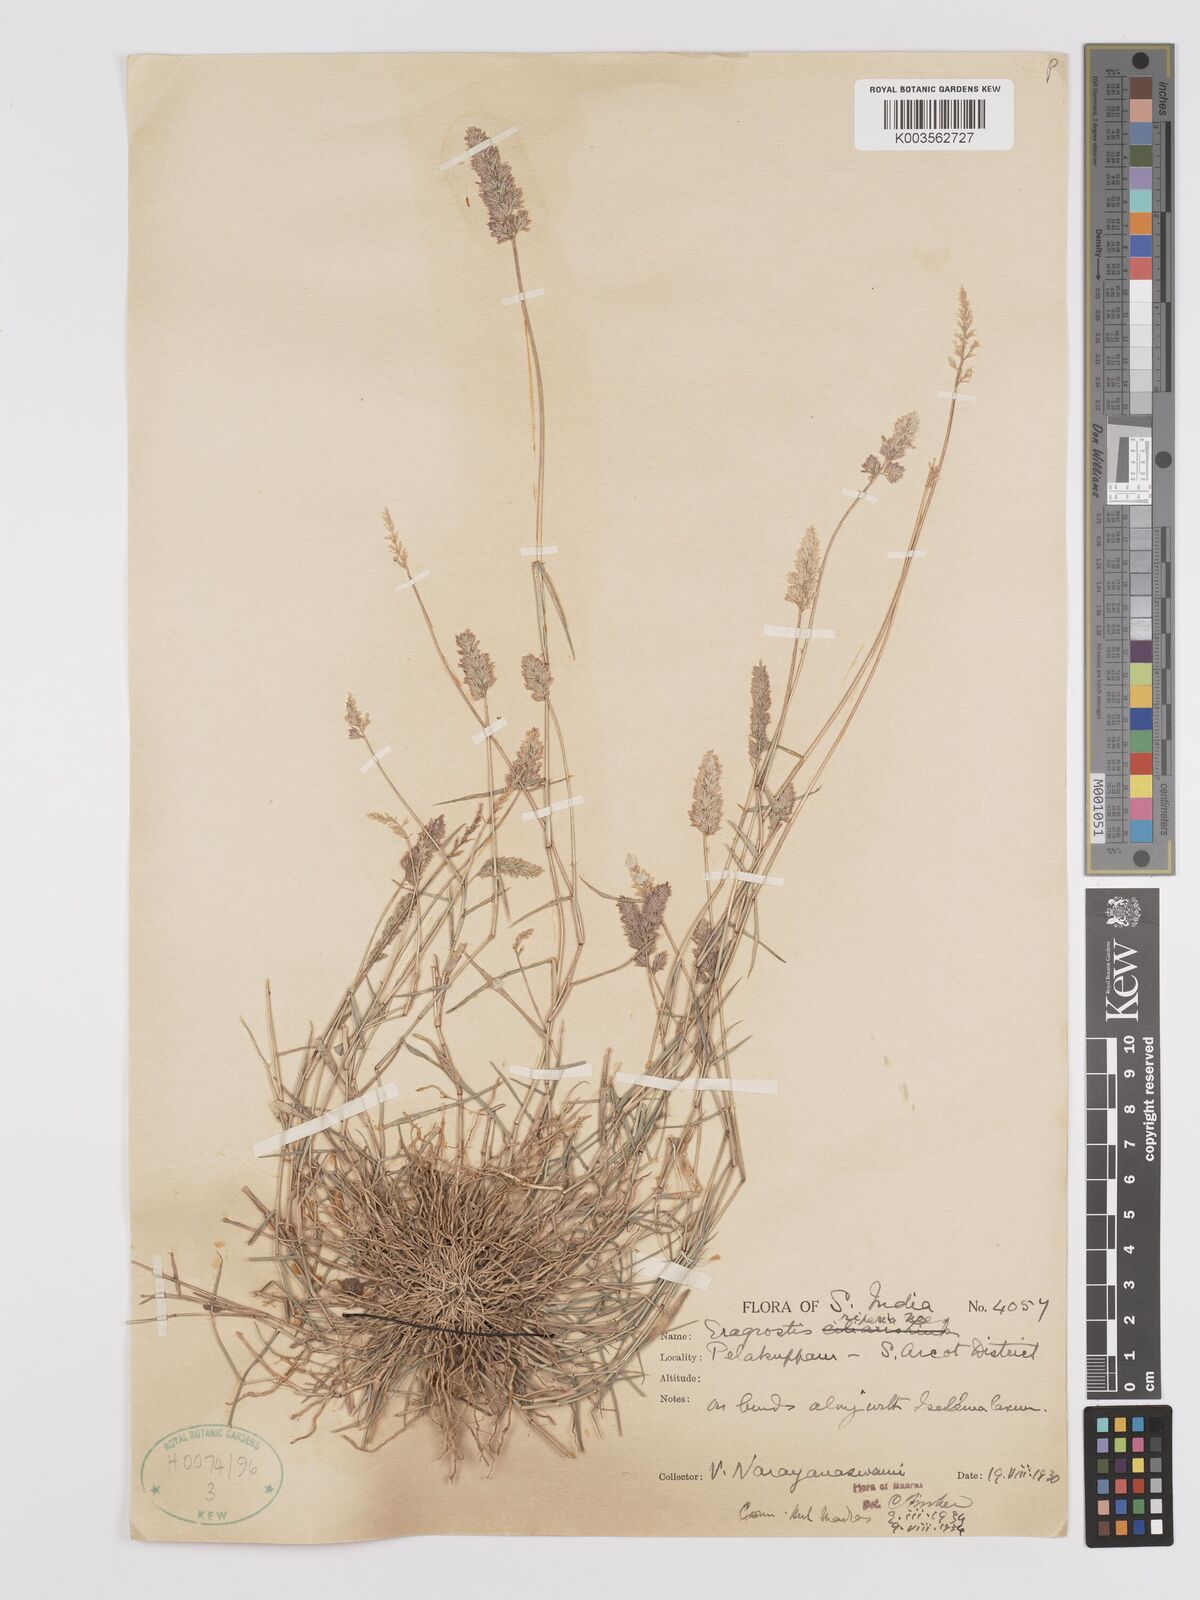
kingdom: Plantae
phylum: Tracheophyta
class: Liliopsida
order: Poales
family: Poaceae
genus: Eragrostis
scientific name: Eragrostis riparia
